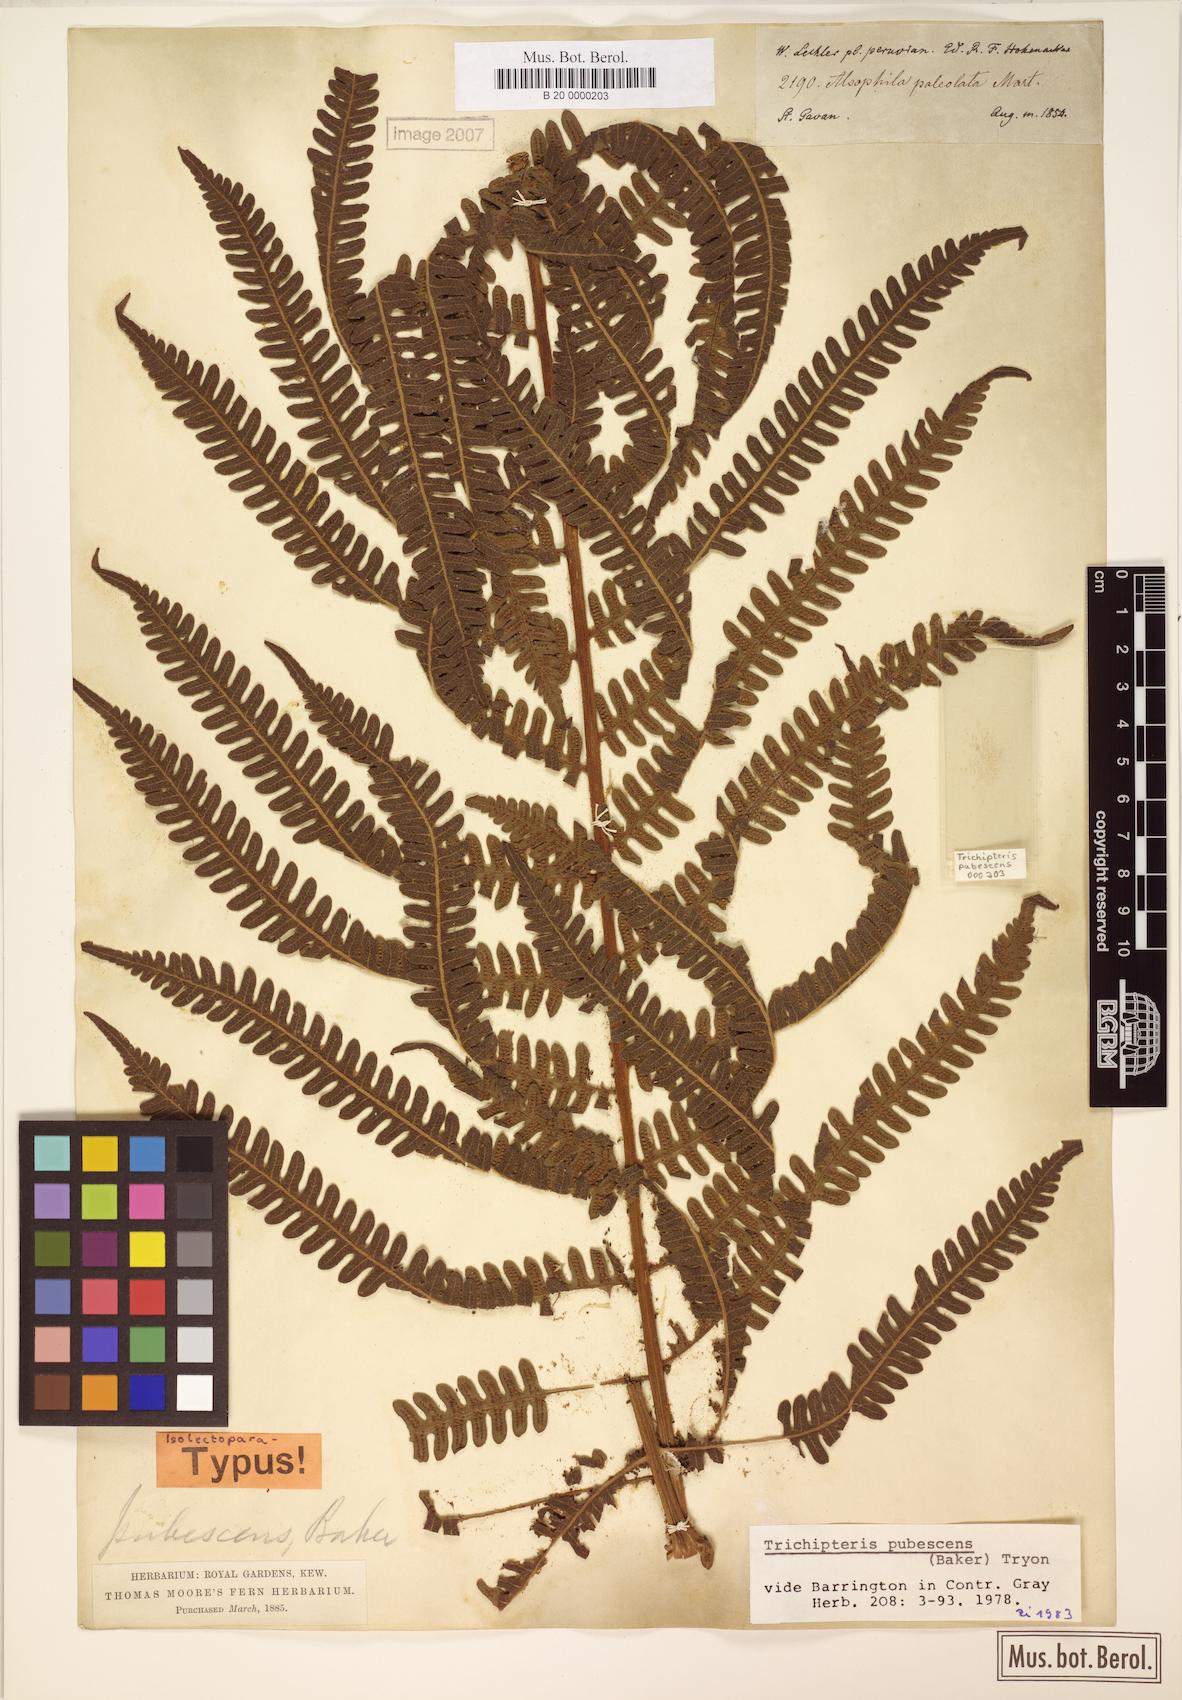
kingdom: Plantae
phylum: Tracheophyta
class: Polypodiopsida
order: Cyatheales
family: Cyatheaceae
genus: Cyathea
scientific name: Cyathea bipinnatifida
